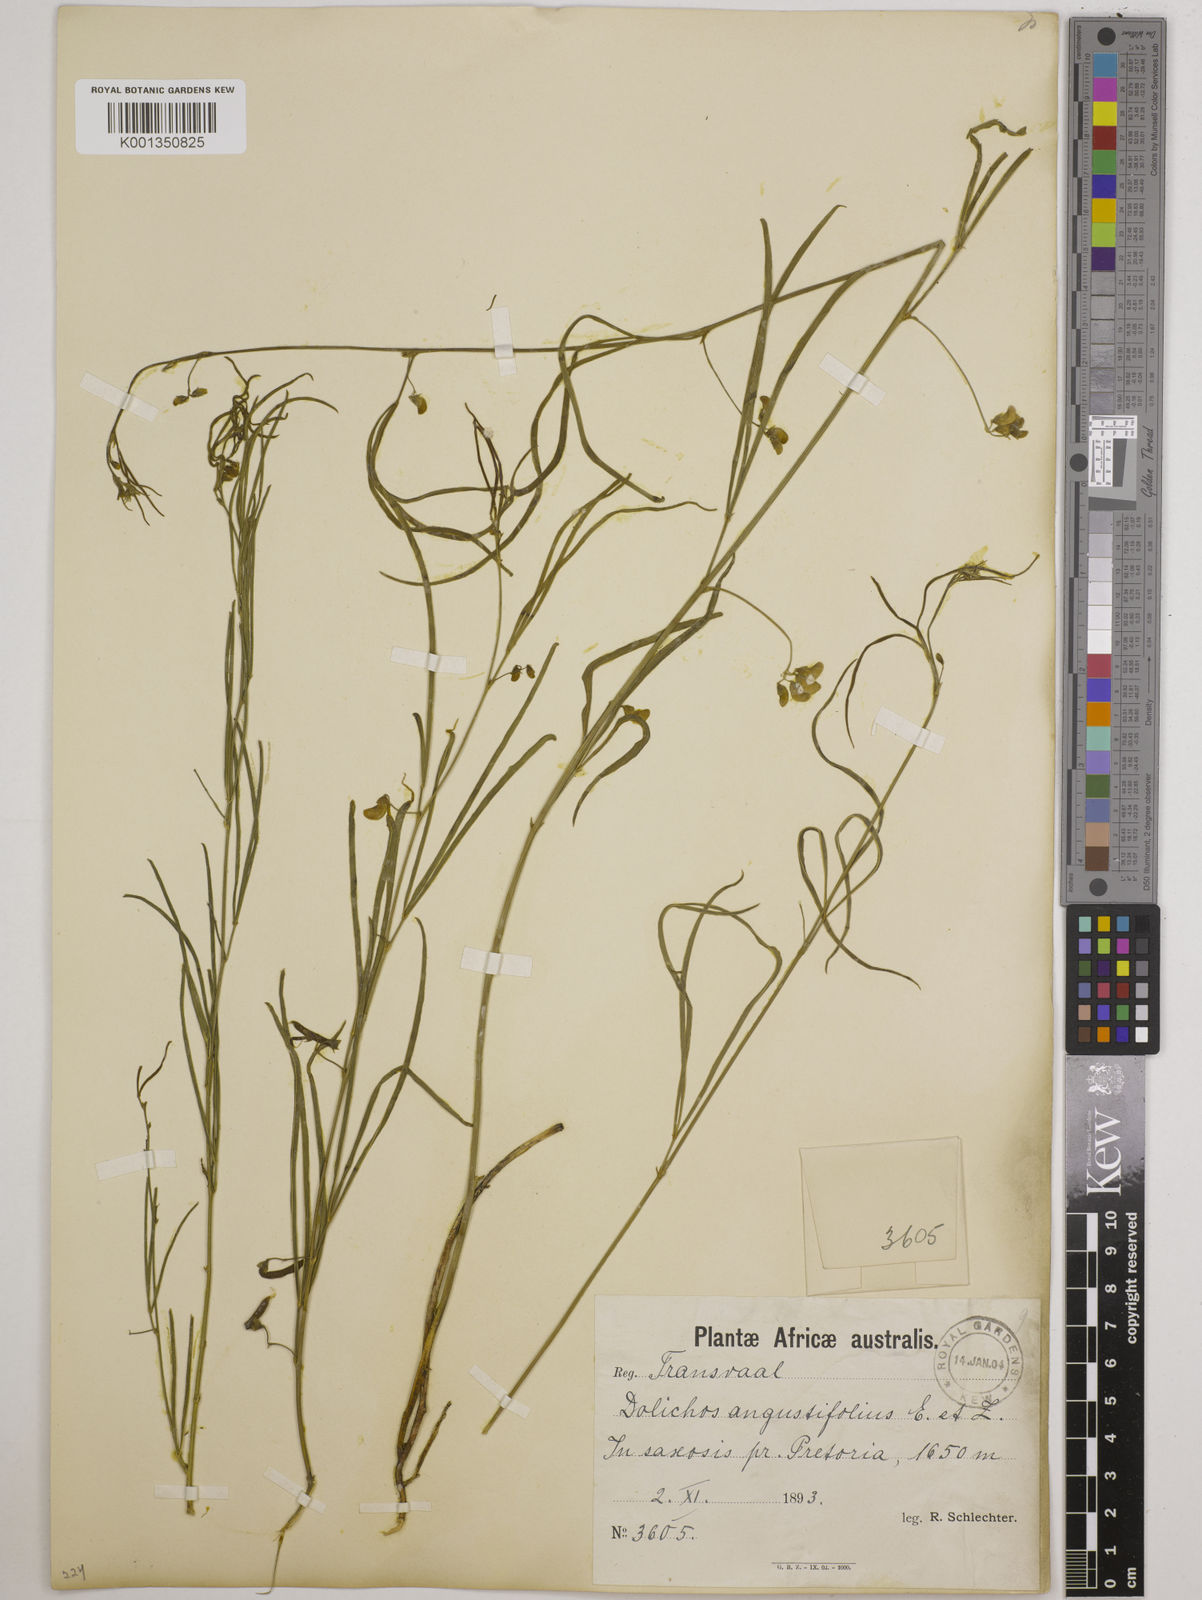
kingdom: Plantae
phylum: Tracheophyta
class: Magnoliopsida
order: Fabales
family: Fabaceae
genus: Dolichos
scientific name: Dolichos
